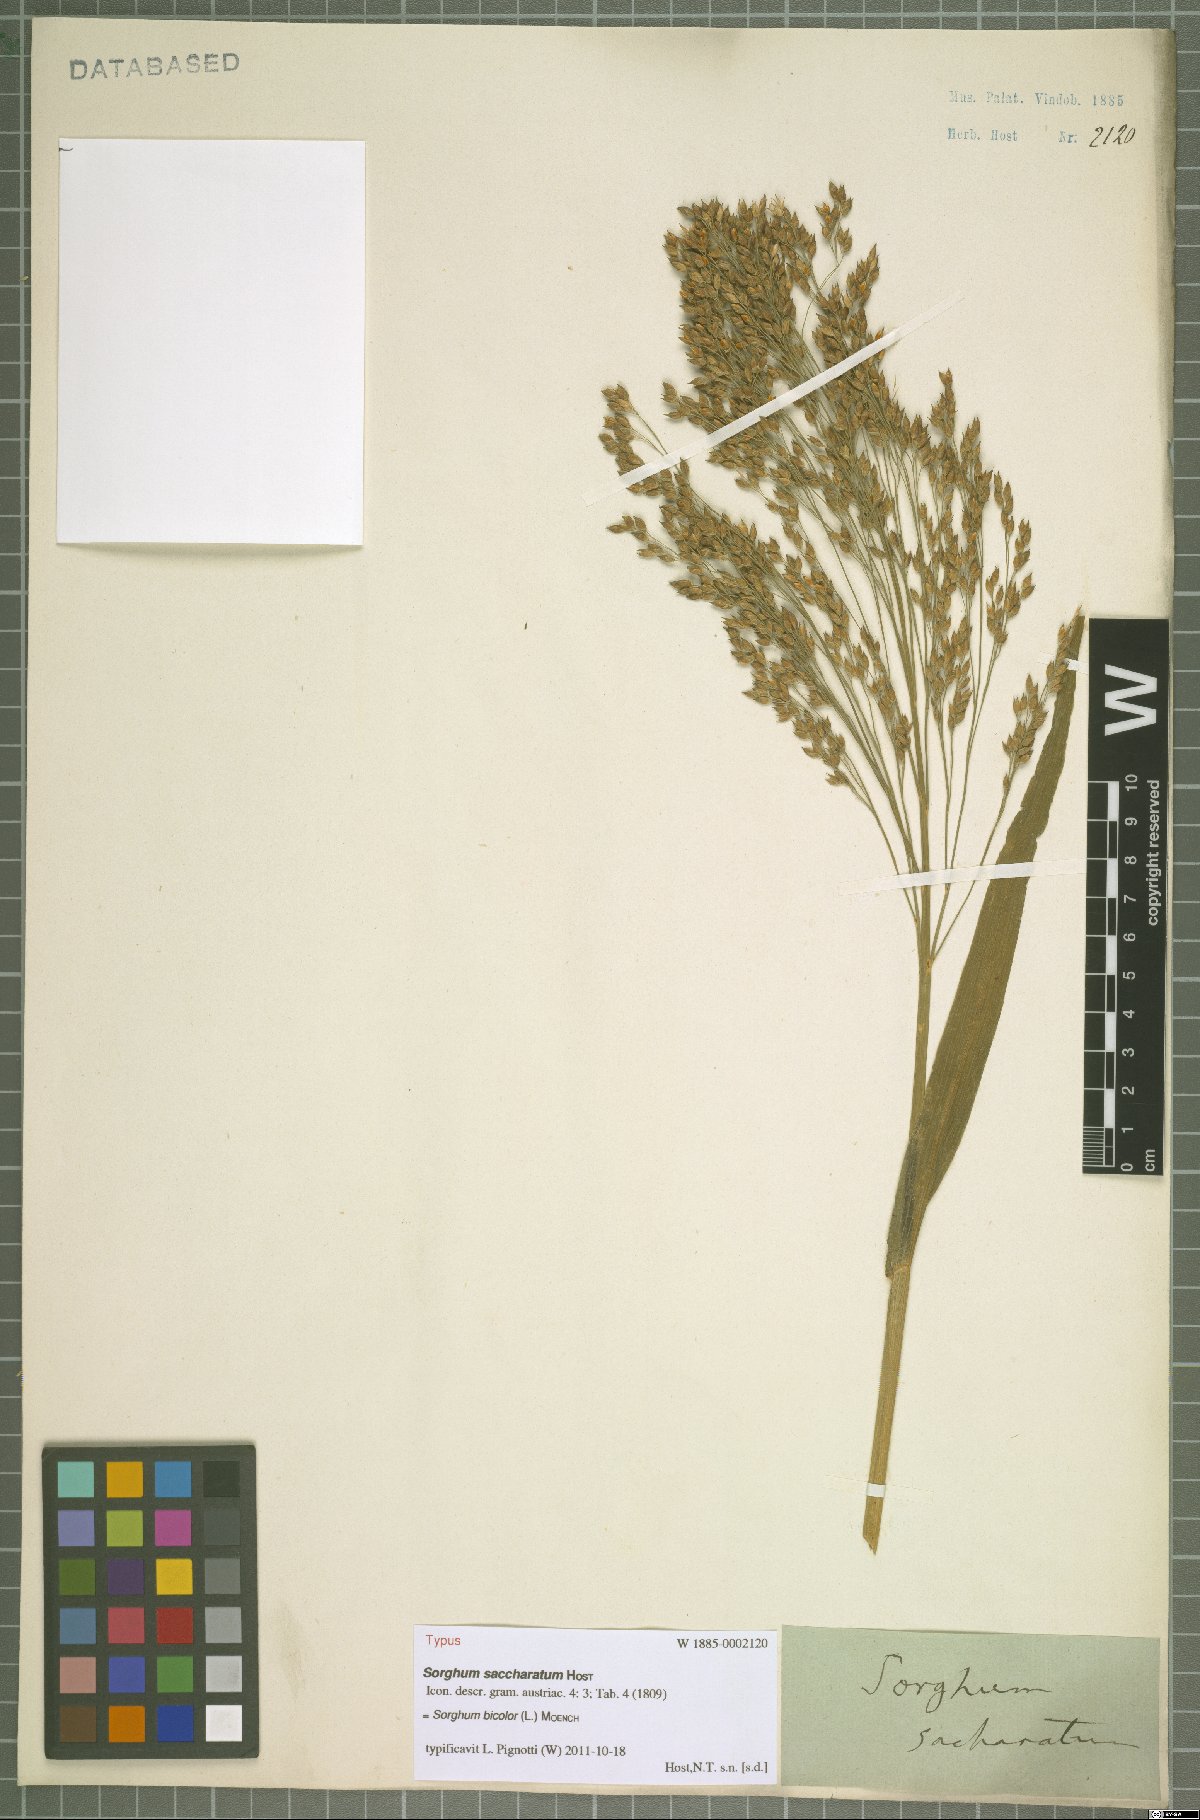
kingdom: Plantae
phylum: Tracheophyta
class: Liliopsida
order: Poales
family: Poaceae
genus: Sorghum
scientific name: Sorghum bicolor
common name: Sorghum
